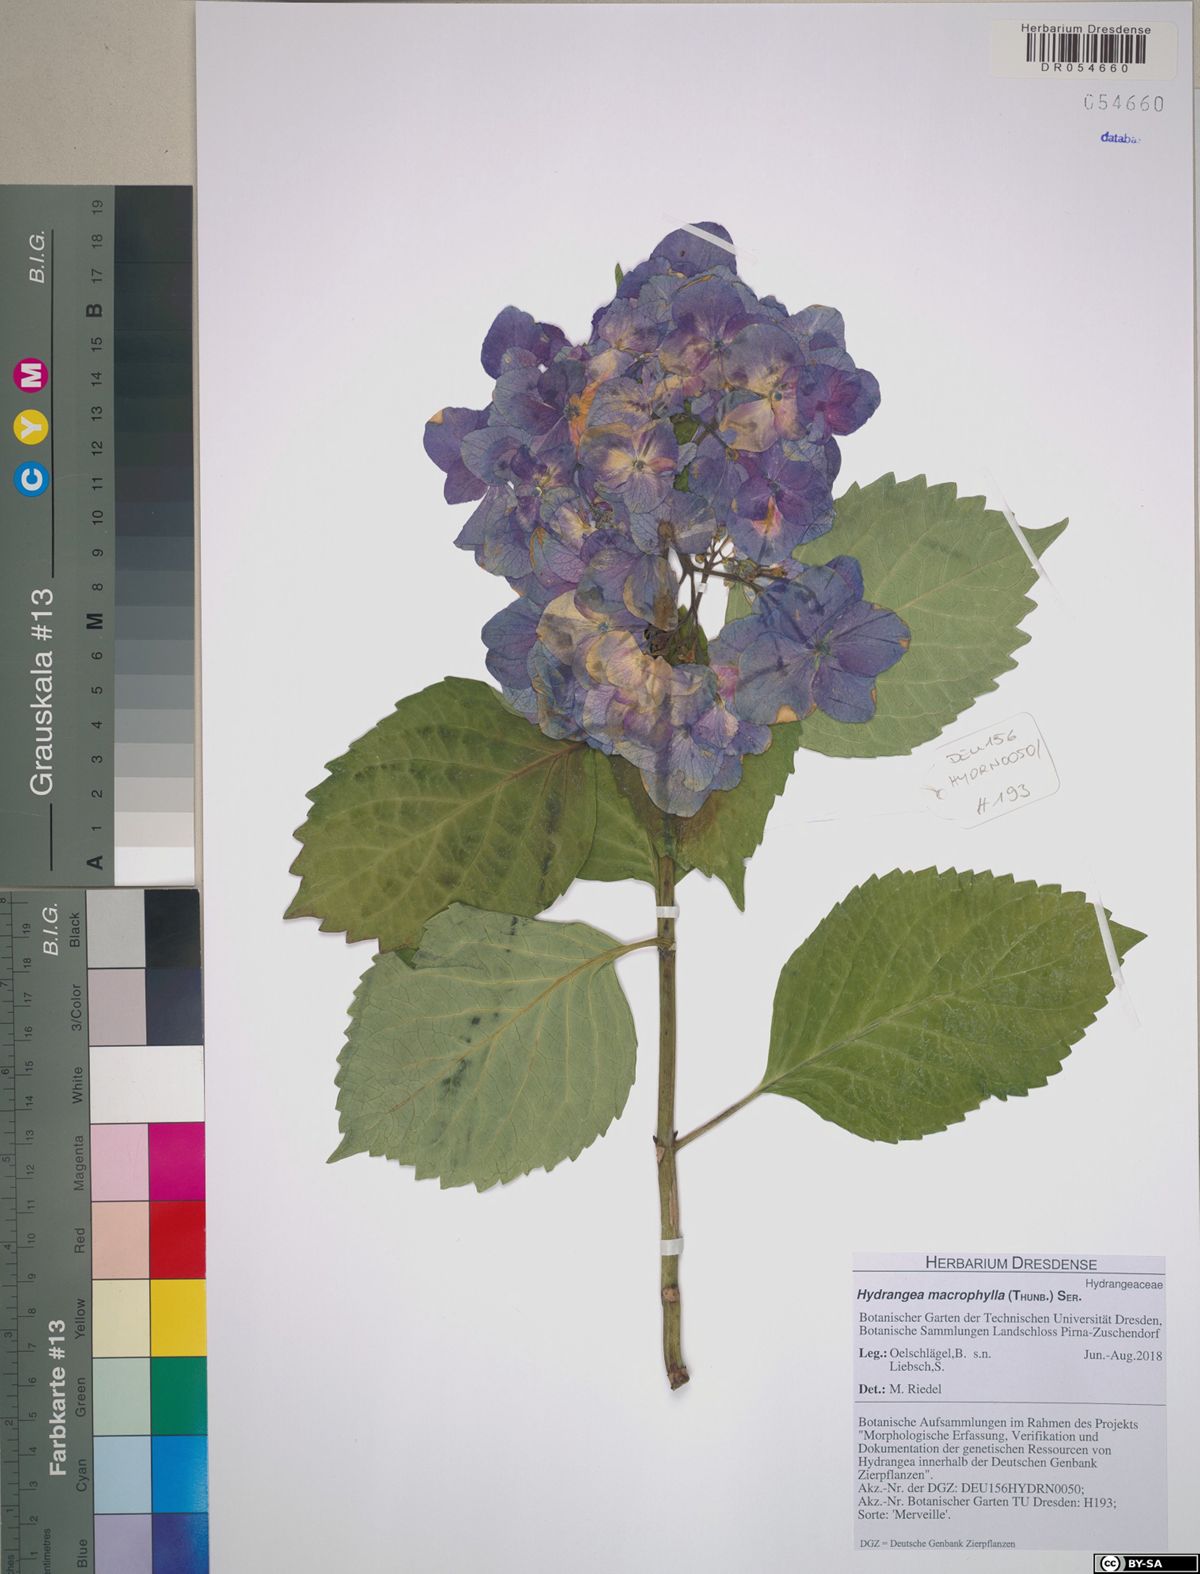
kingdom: Plantae
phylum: Tracheophyta
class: Magnoliopsida
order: Cornales
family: Hydrangeaceae
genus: Hydrangea
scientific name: Hydrangea macrophylla
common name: Hydrangea
